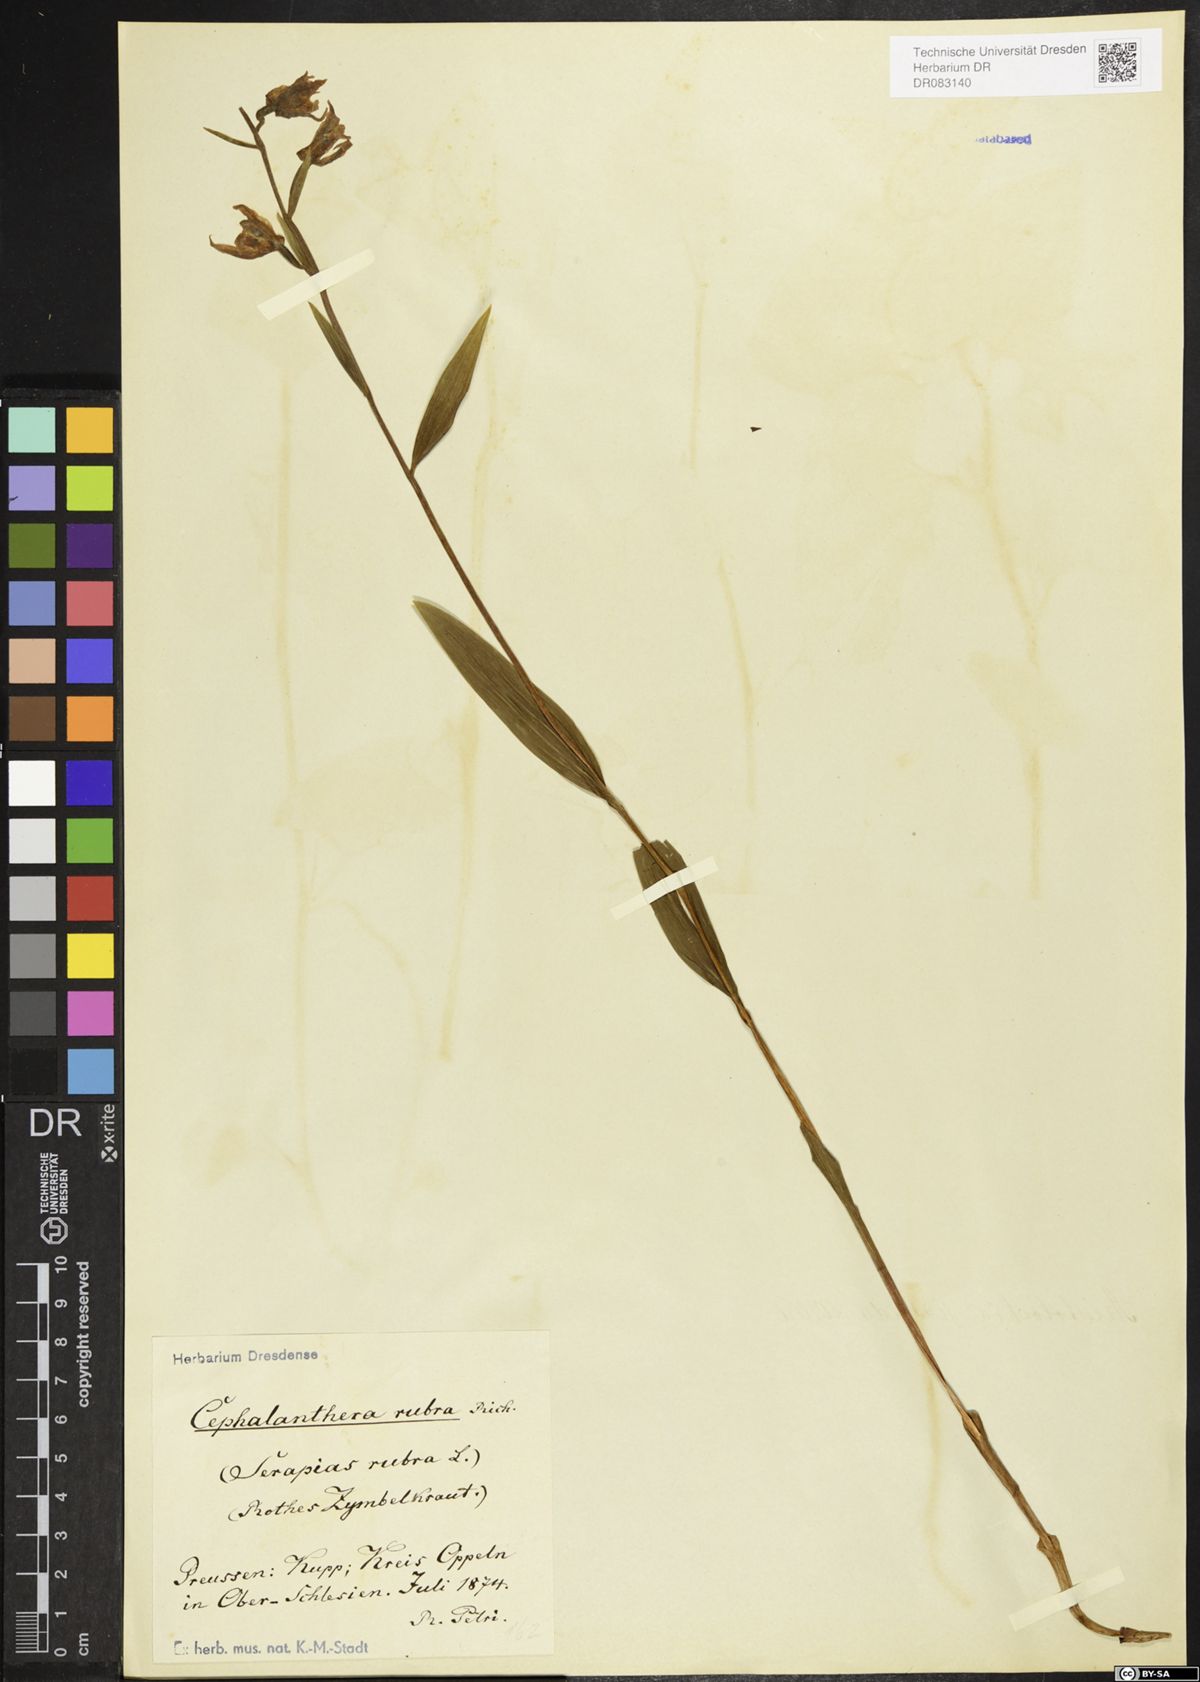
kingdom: Plantae
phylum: Tracheophyta
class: Liliopsida
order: Asparagales
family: Orchidaceae
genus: Cephalanthera
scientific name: Cephalanthera rubra
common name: Red helleborine
